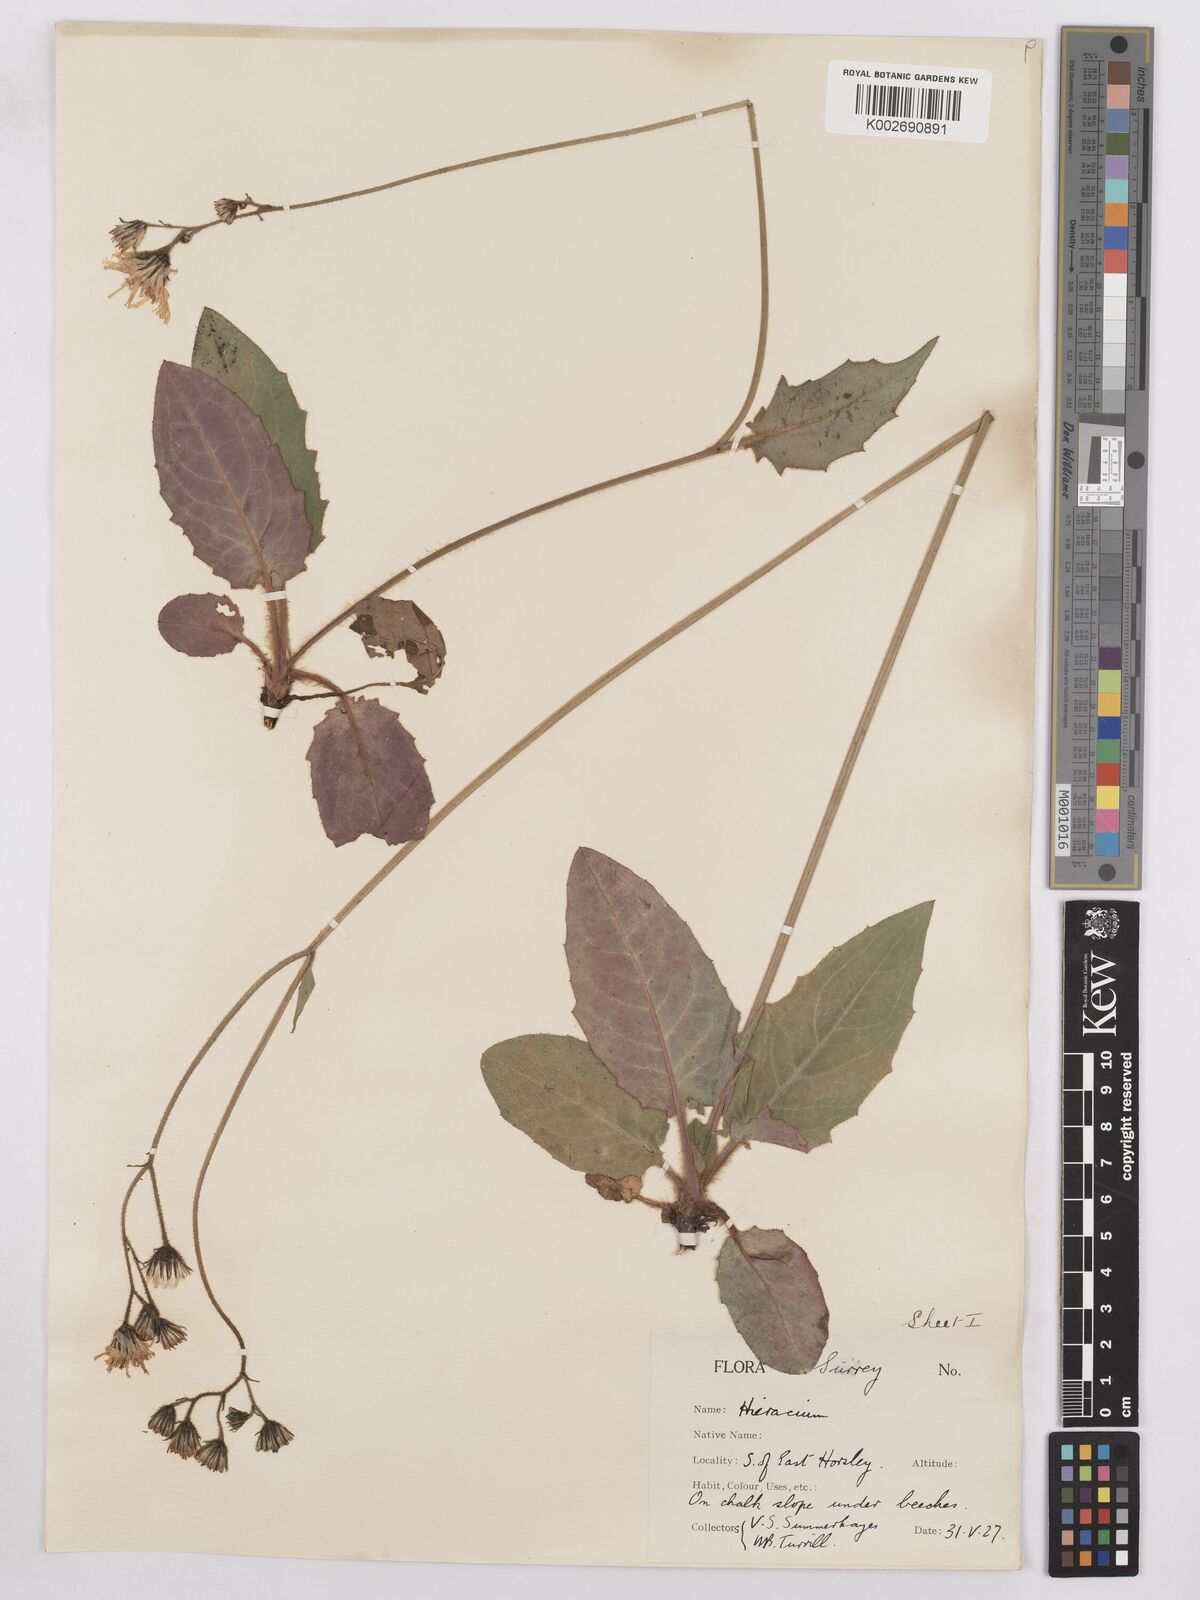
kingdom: Plantae
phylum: Tracheophyta
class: Magnoliopsida
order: Asterales
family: Asteraceae
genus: Hieracium
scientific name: Hieracium murorum
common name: Wall hawkweed
